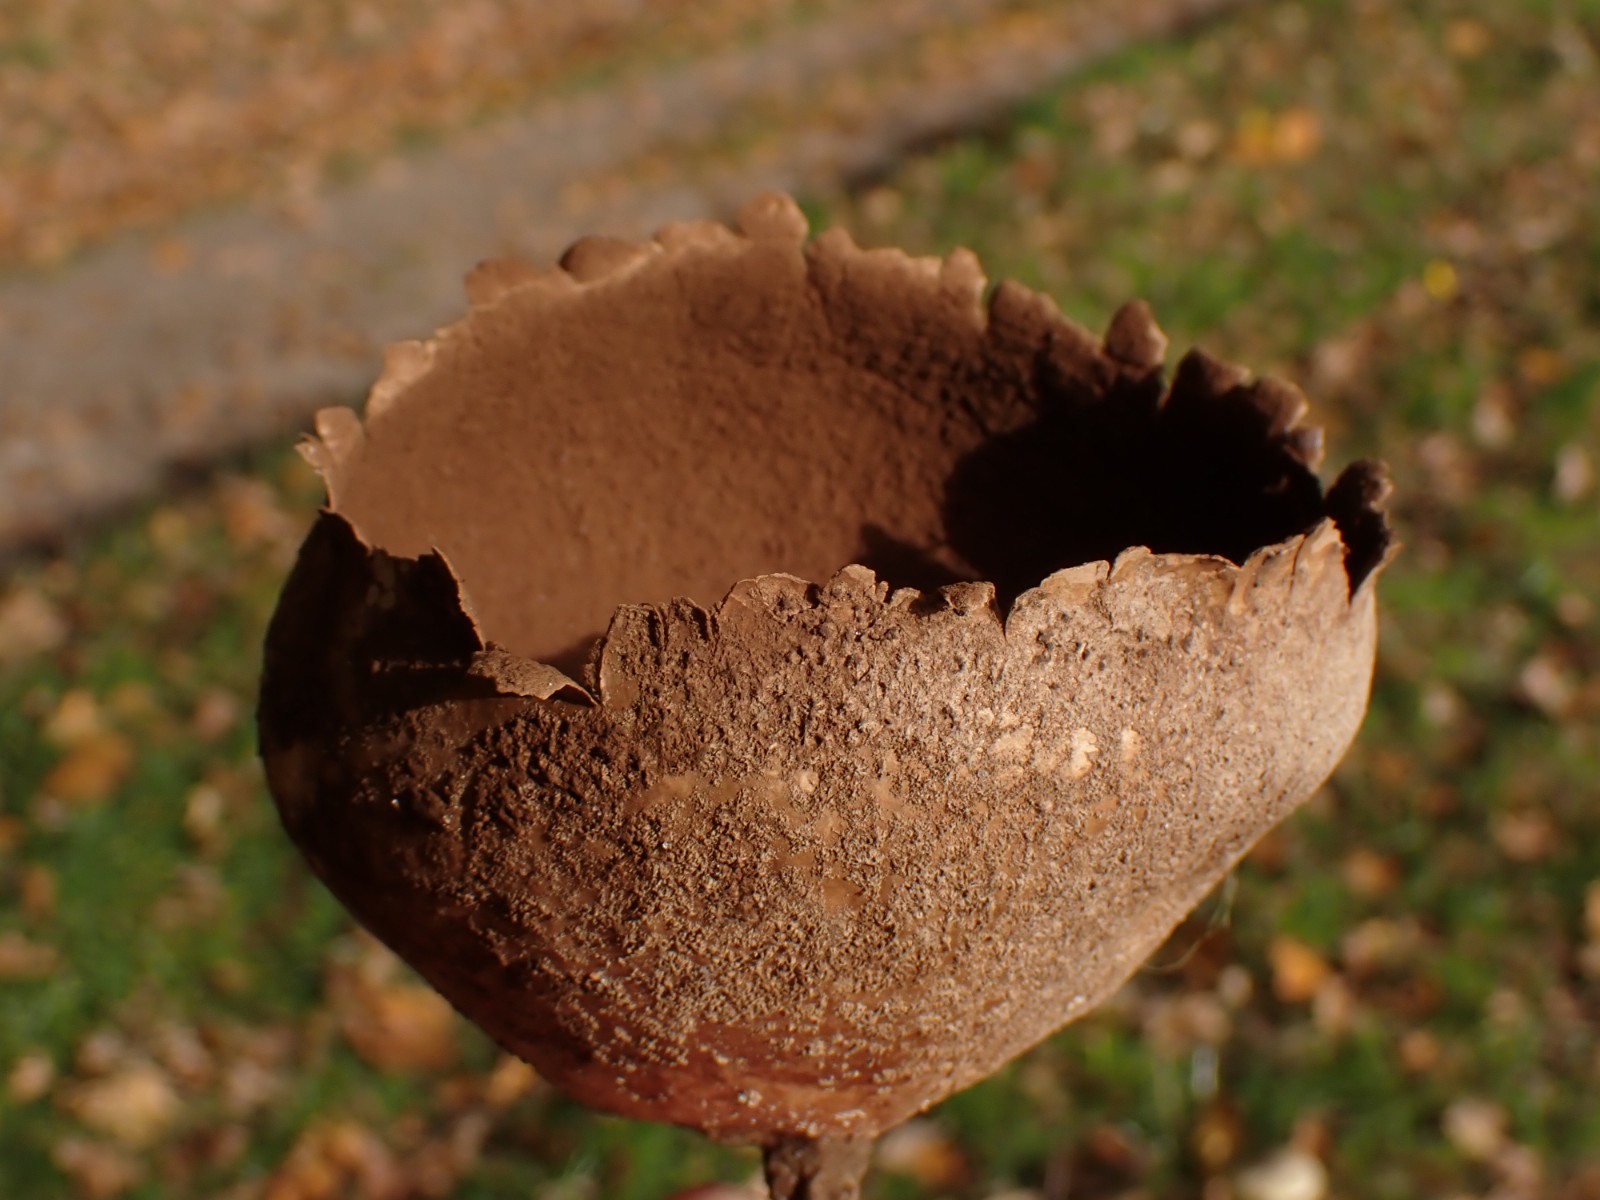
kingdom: Fungi
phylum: Basidiomycota
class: Agaricomycetes
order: Agaricales
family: Lycoperdaceae
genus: Bovistella
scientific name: Bovistella utriformis
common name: skællet støvbold
